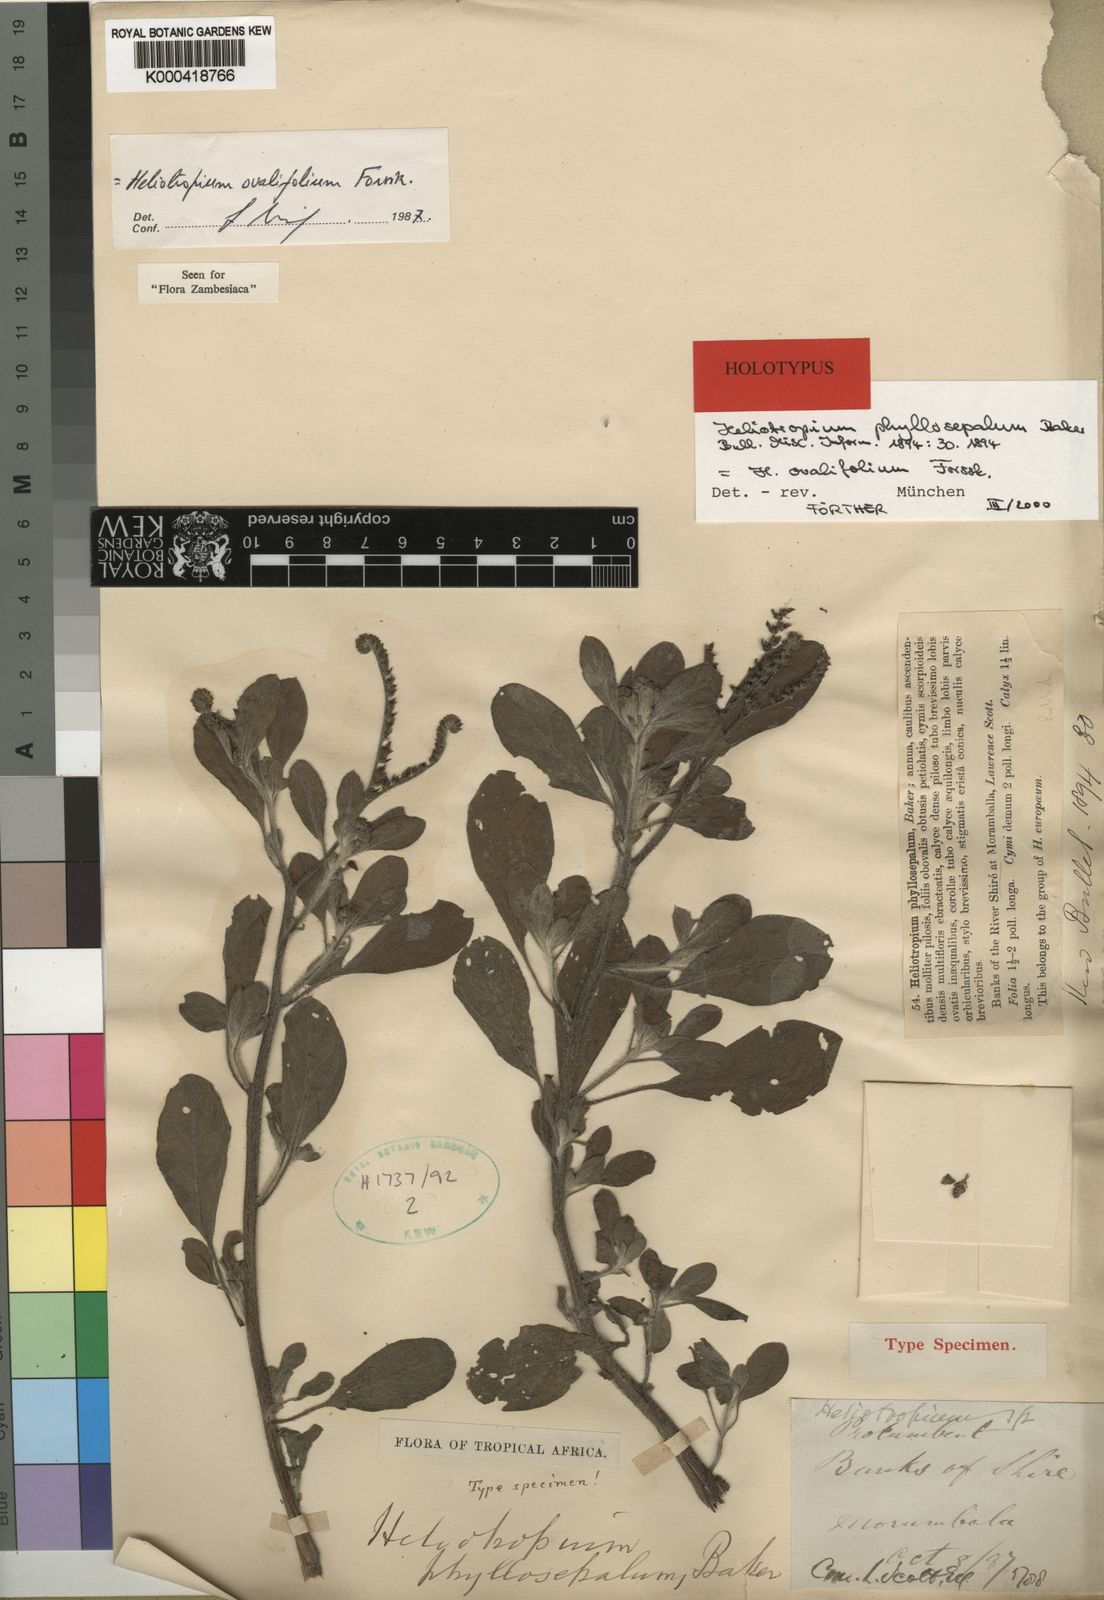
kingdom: Plantae
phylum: Tracheophyta
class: Magnoliopsida
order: Boraginales
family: Heliotropiaceae
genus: Euploca
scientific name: Euploca ovalifolia
